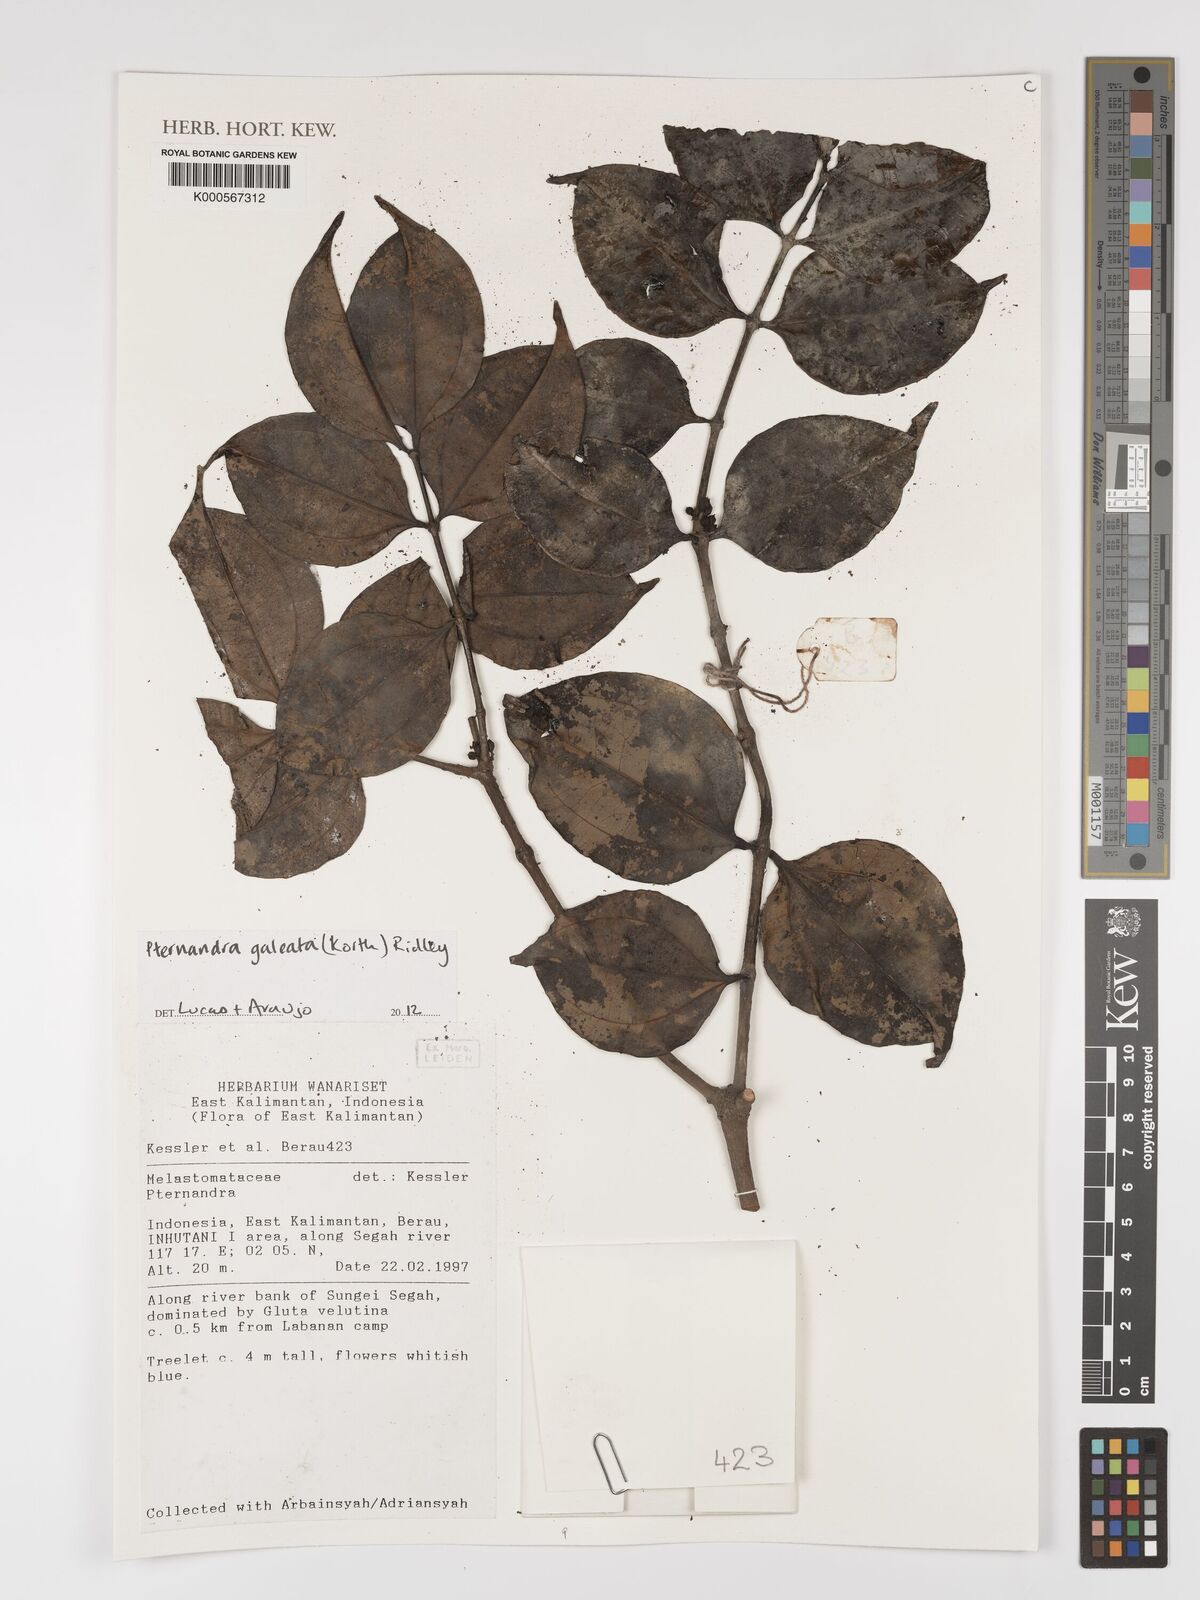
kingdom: Plantae
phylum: Tracheophyta
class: Magnoliopsida
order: Myrtales
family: Melastomataceae
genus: Pternandra
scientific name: Pternandra galeata
